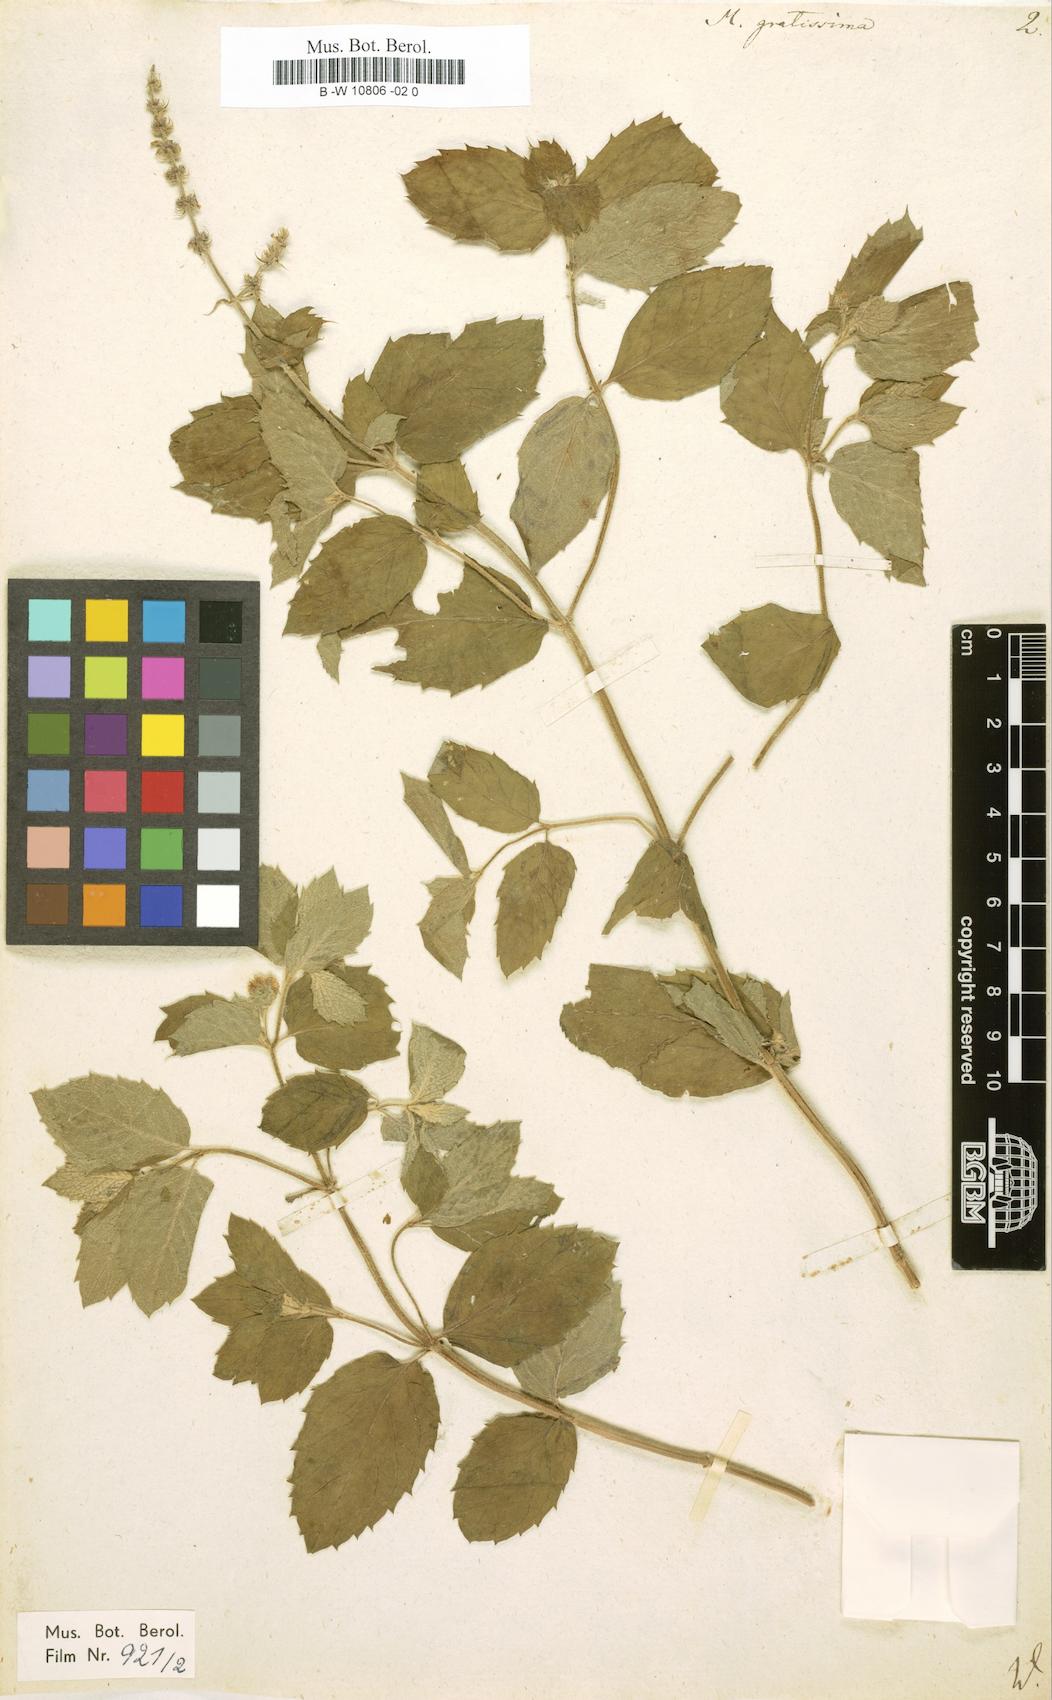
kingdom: Plantae
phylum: Tracheophyta
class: Magnoliopsida
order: Lamiales
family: Lamiaceae
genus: Mentha
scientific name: Mentha gratissima
